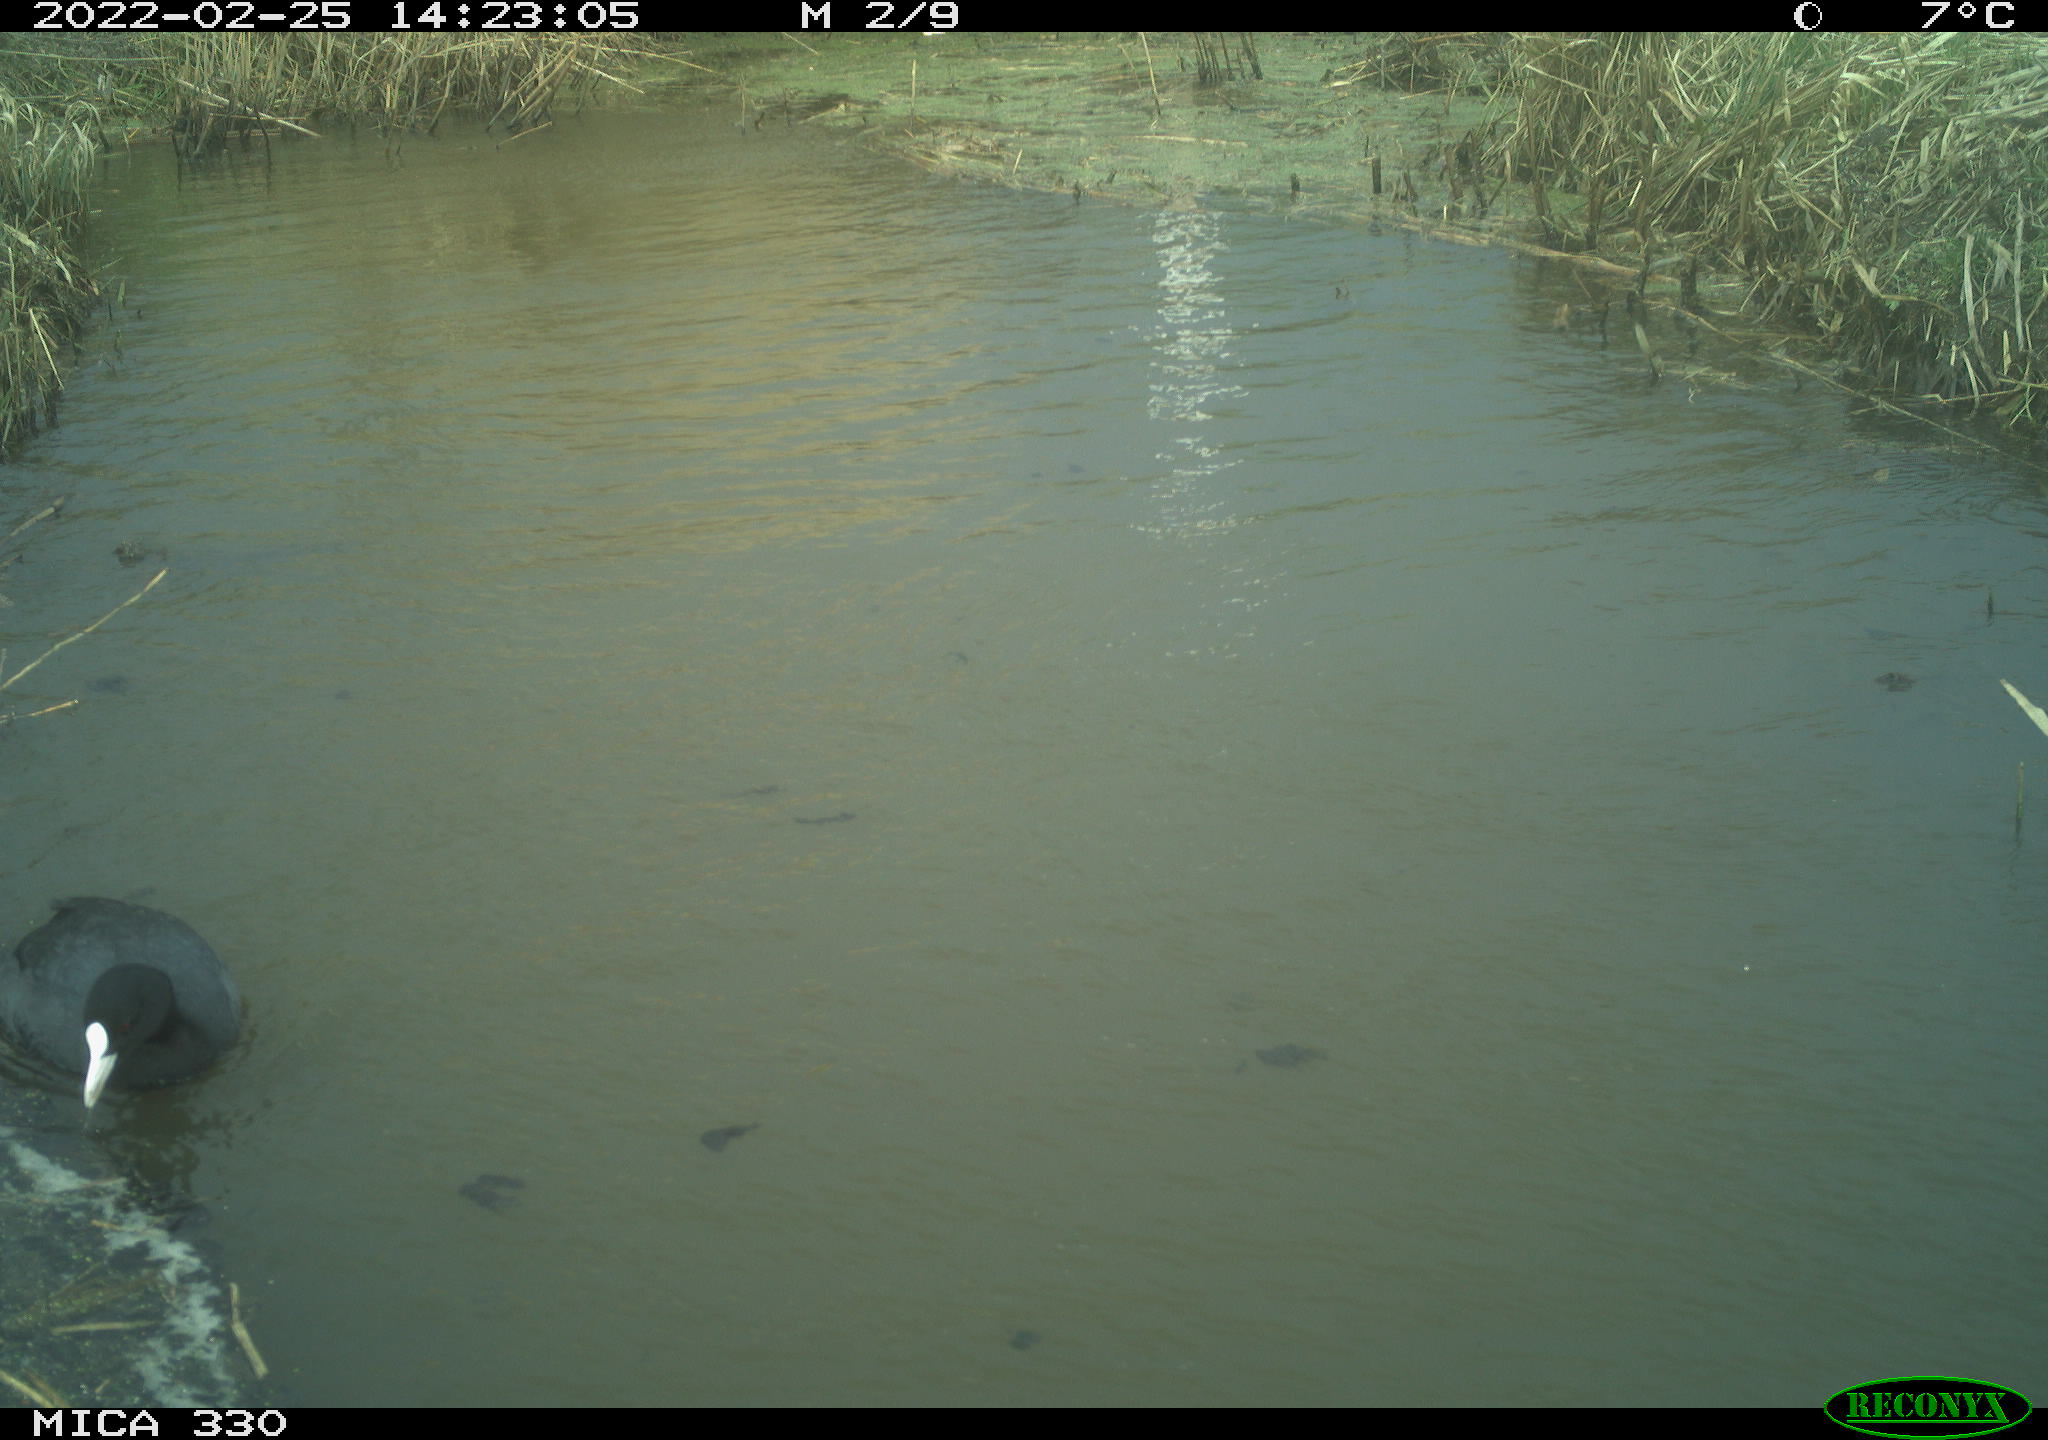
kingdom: Animalia
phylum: Chordata
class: Aves
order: Gruiformes
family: Rallidae
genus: Fulica
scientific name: Fulica atra
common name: Eurasian coot
